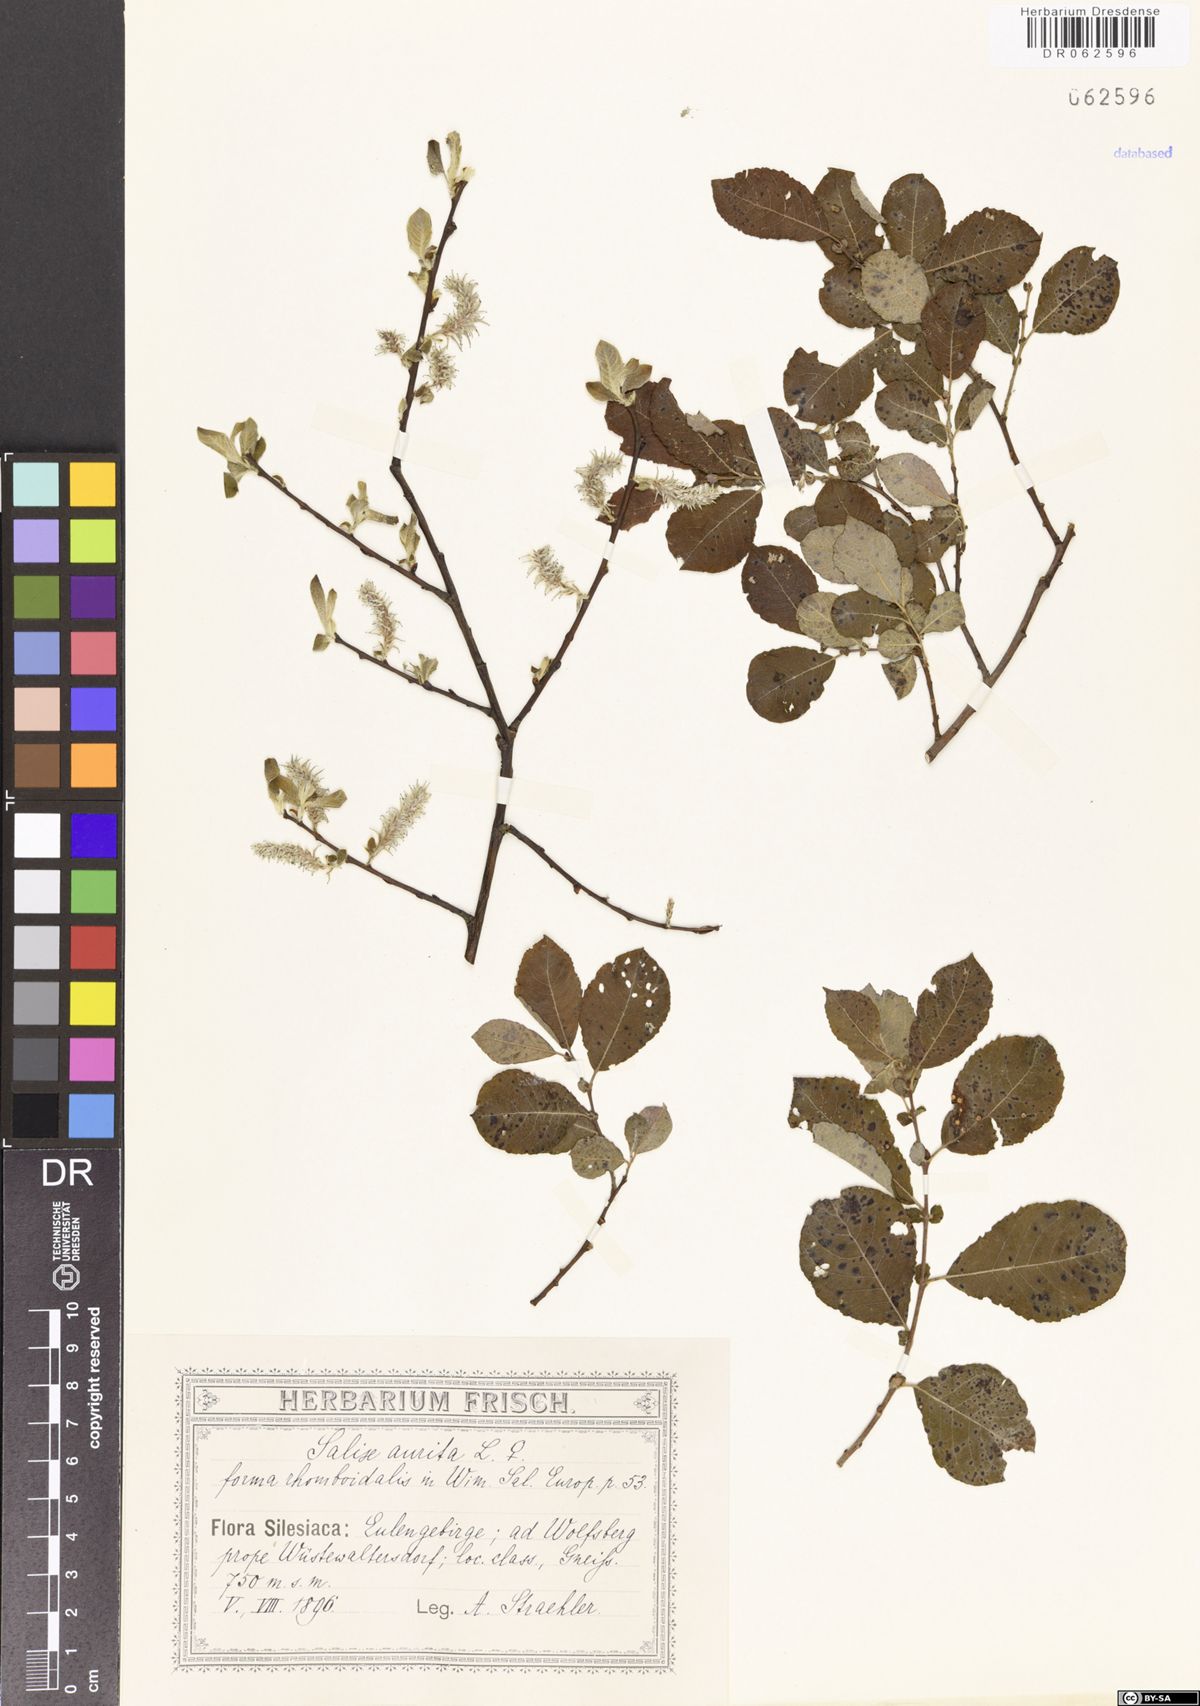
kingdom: Plantae
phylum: Tracheophyta
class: Magnoliopsida
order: Malpighiales
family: Salicaceae
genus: Salix
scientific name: Salix aurita
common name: Eared willow
